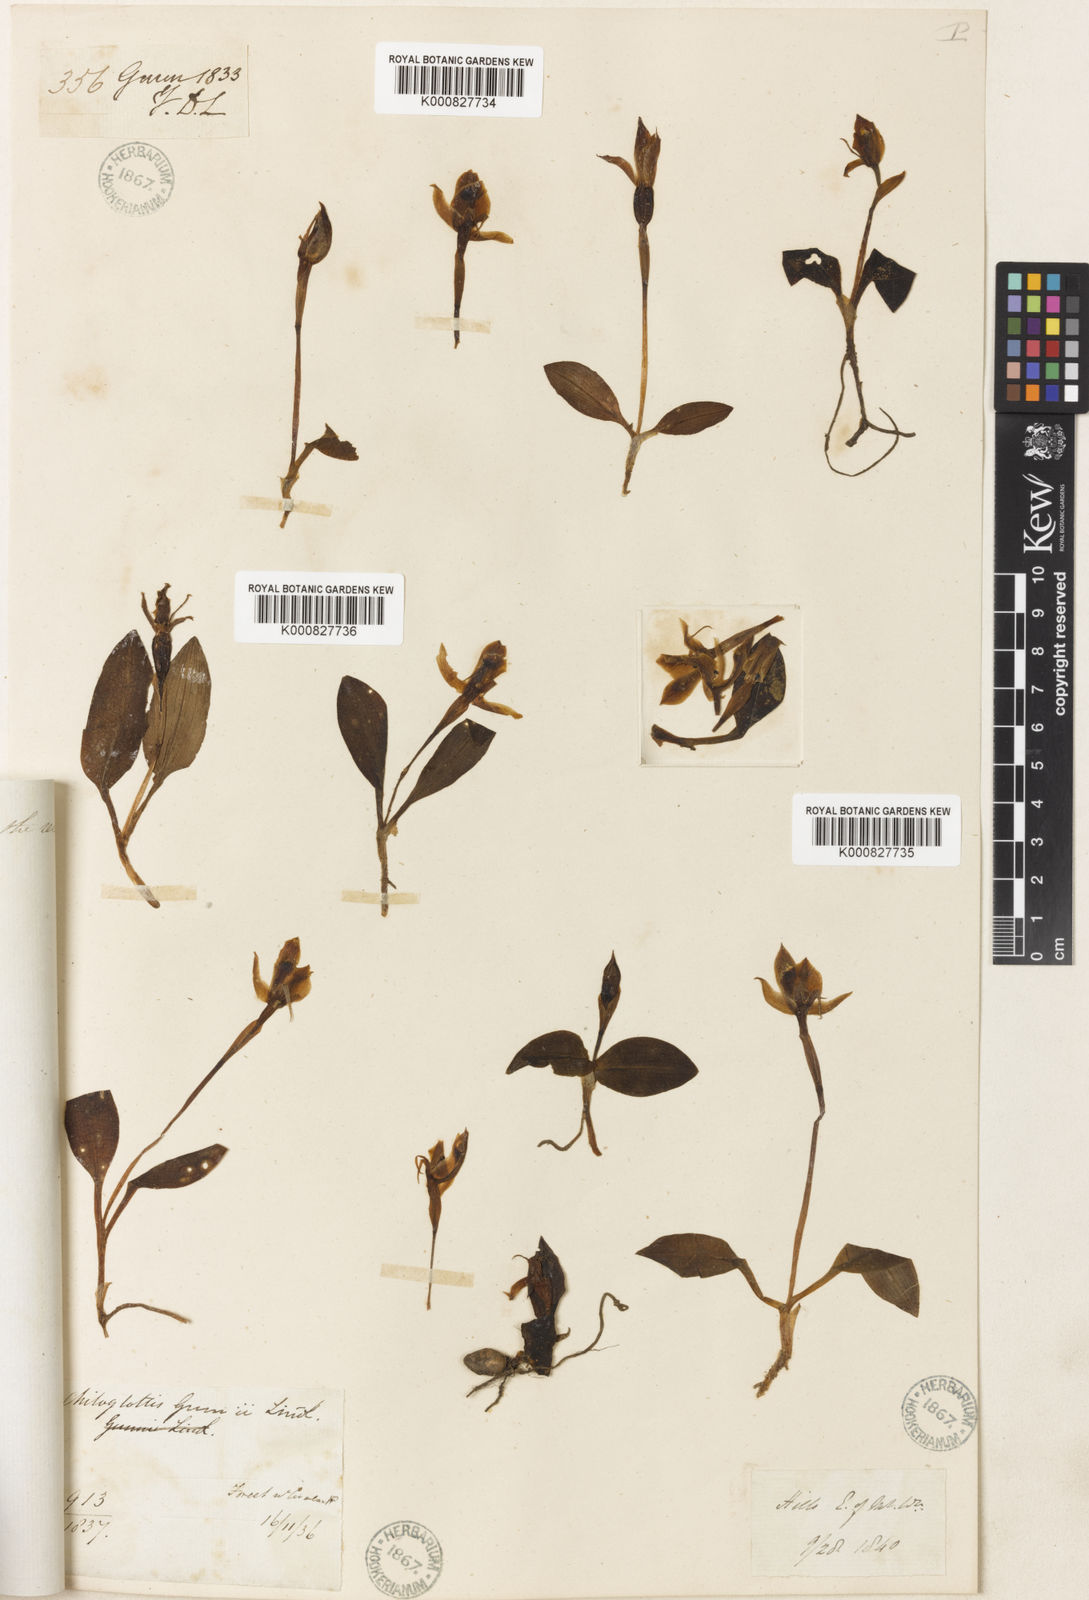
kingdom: Plantae
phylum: Tracheophyta
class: Liliopsida
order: Asparagales
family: Orchidaceae
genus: Chiloglottis
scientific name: Chiloglottis gunnii
